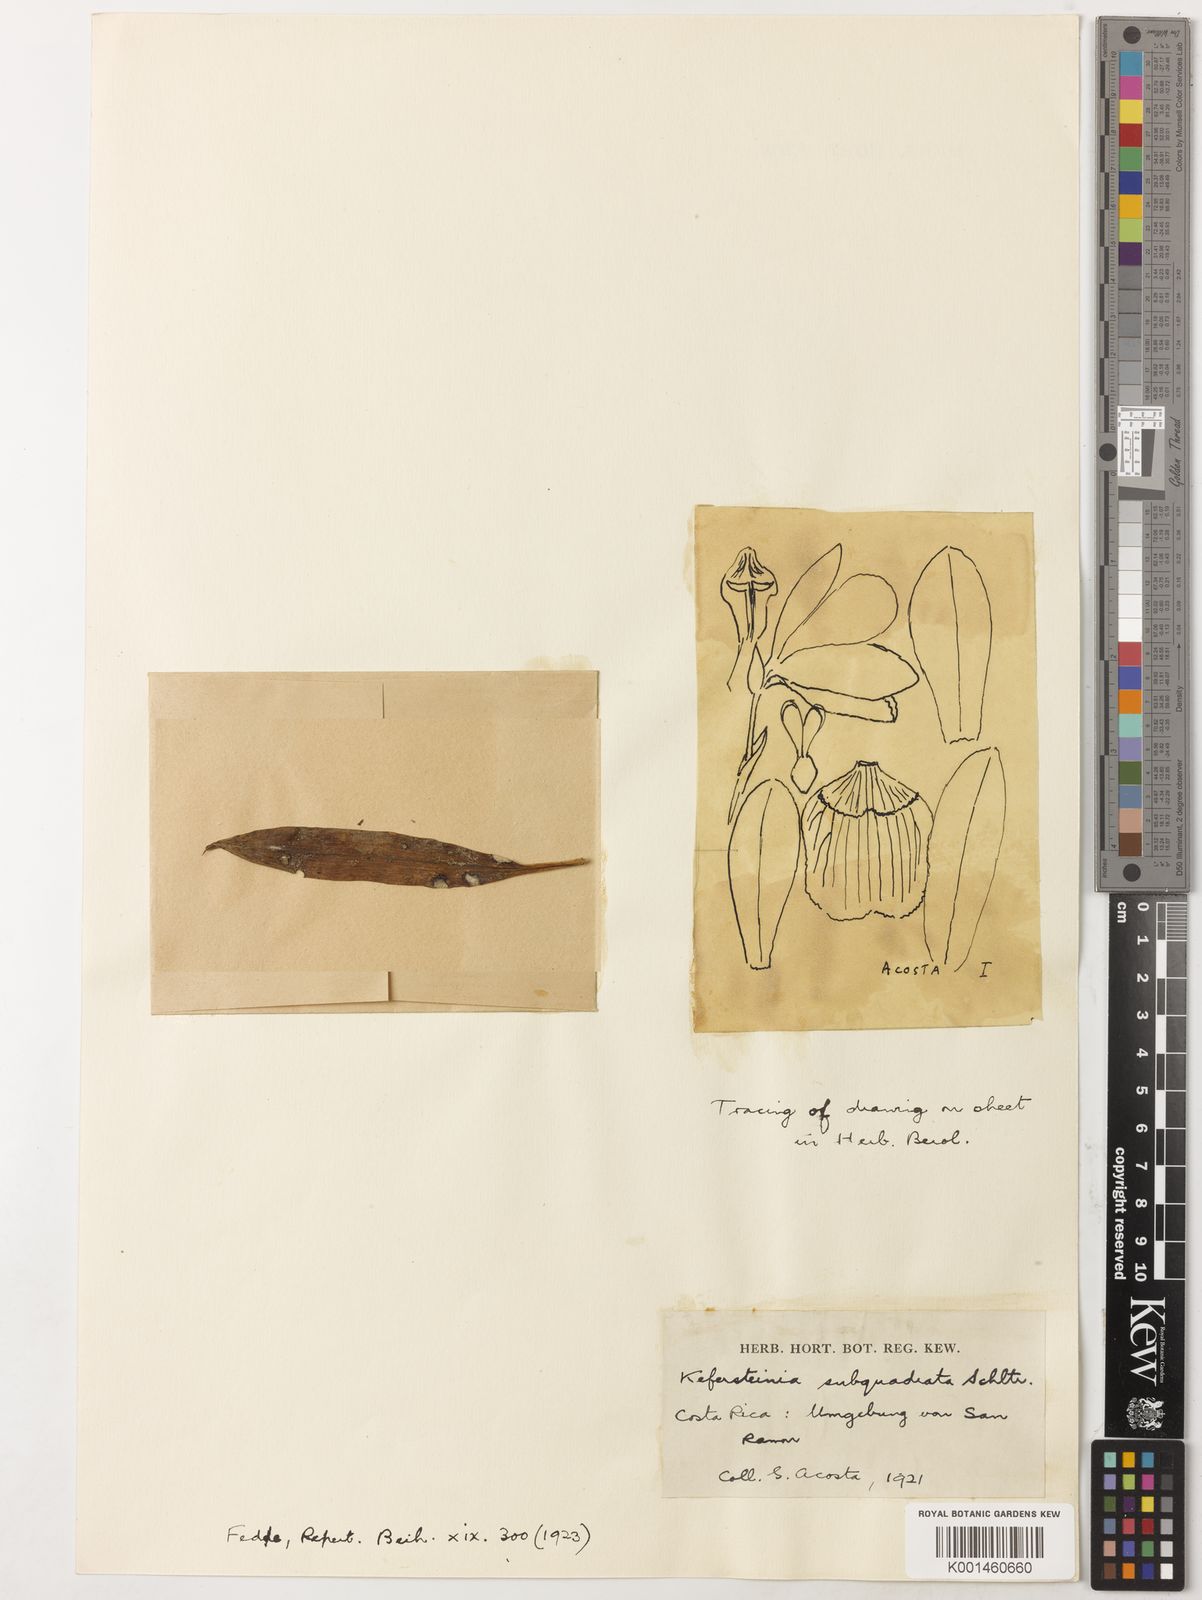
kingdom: Plantae
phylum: Tracheophyta
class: Liliopsida
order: Asparagales
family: Orchidaceae
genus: Chaubardiella
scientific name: Chaubardiella subquadrata
